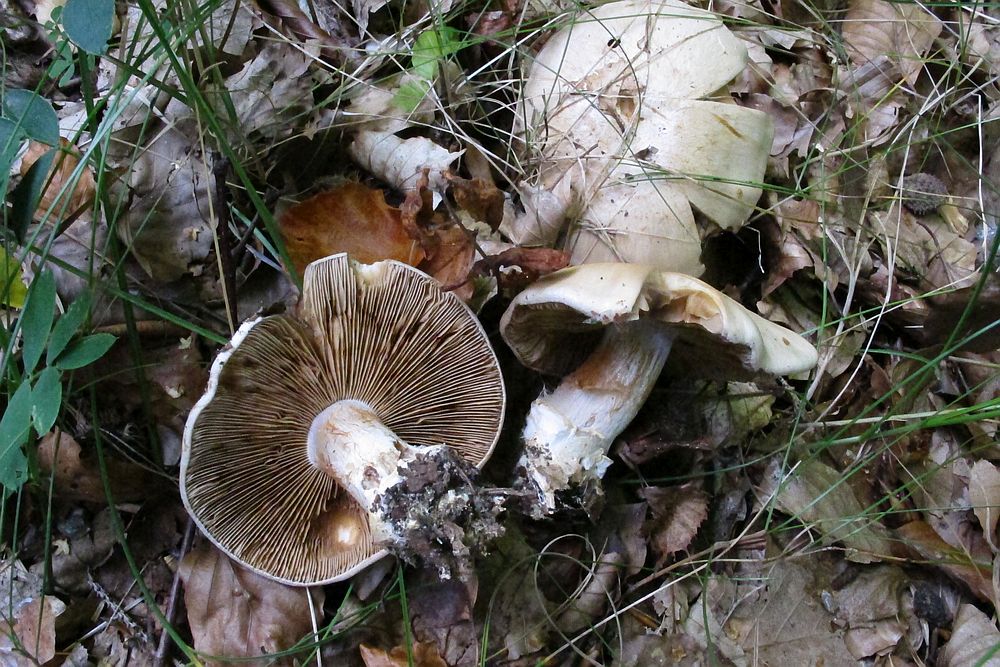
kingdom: Fungi
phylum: Basidiomycota
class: Agaricomycetes
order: Agaricales
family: Cortinariaceae
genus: Cortinarius
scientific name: Cortinarius anserinus
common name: bøge-slørhat
